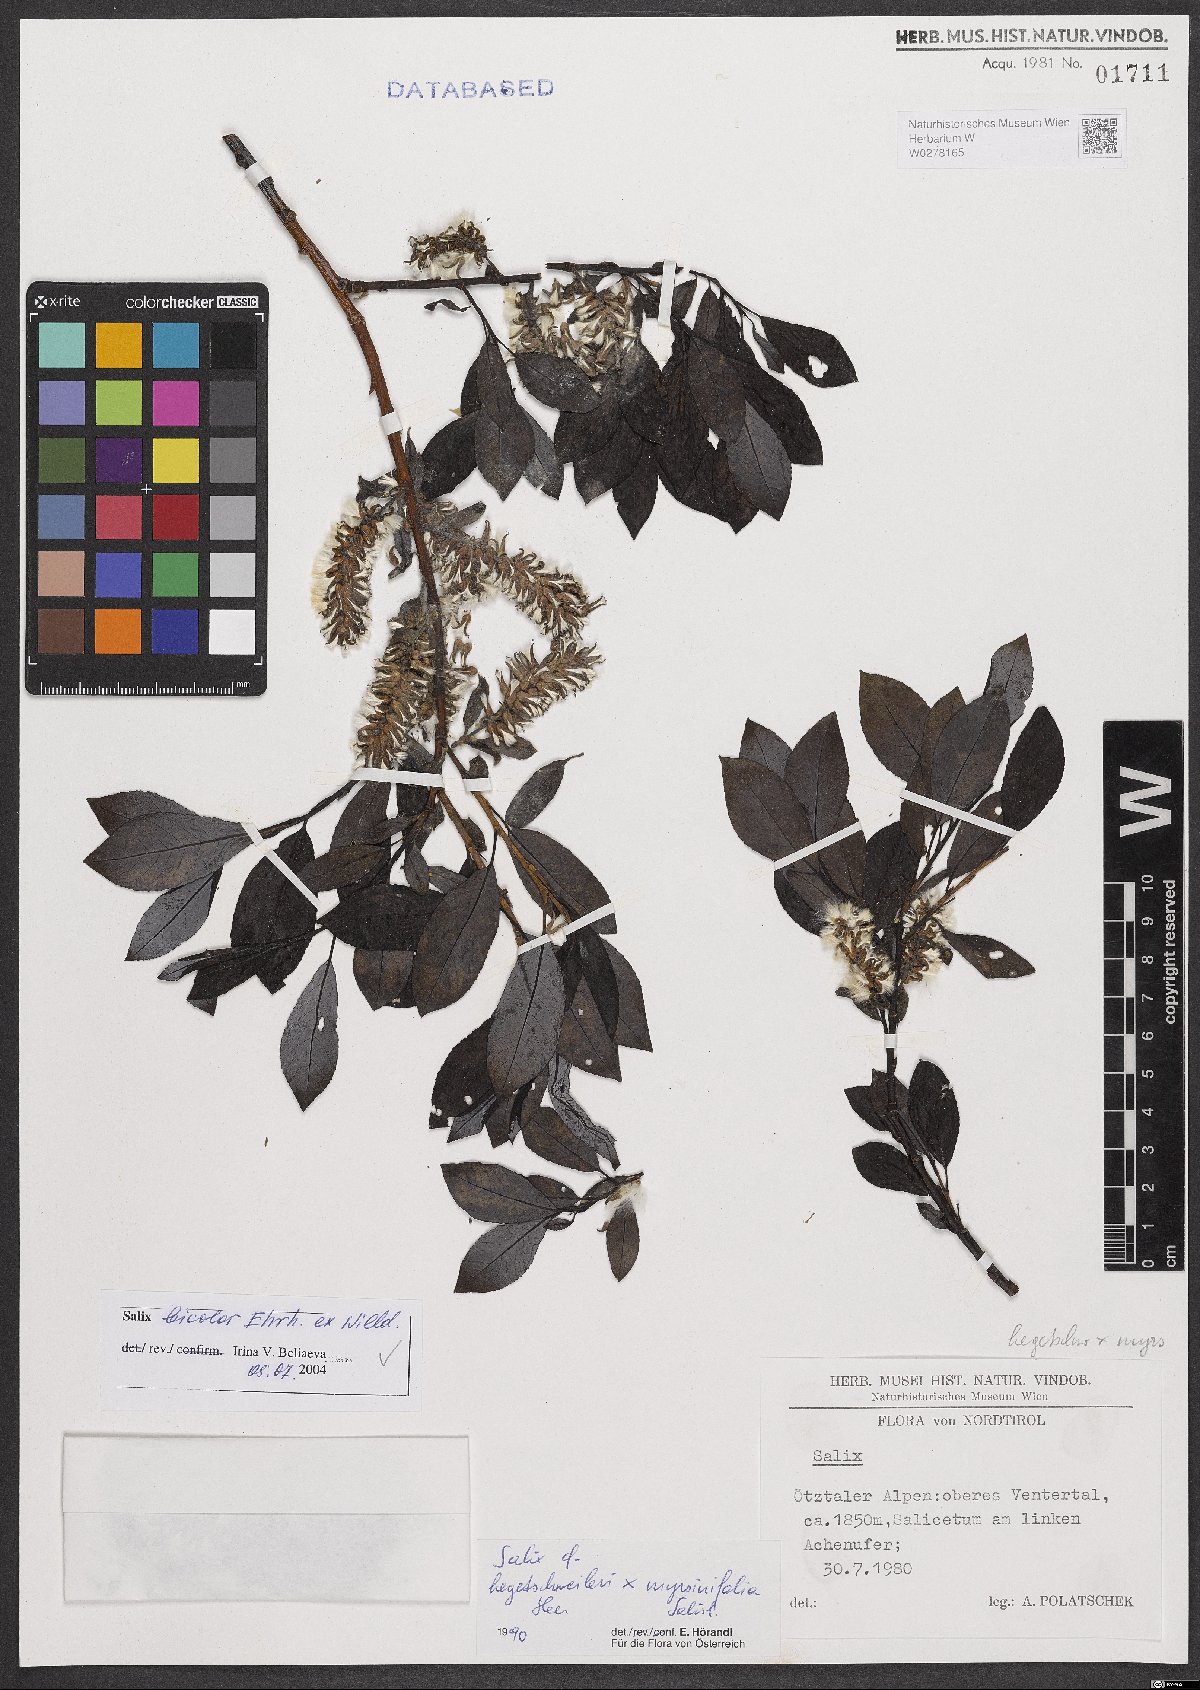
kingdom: Plantae
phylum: Tracheophyta
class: Magnoliopsida
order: Malpighiales
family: Salicaceae
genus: Salix
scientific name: Salix bicolor
